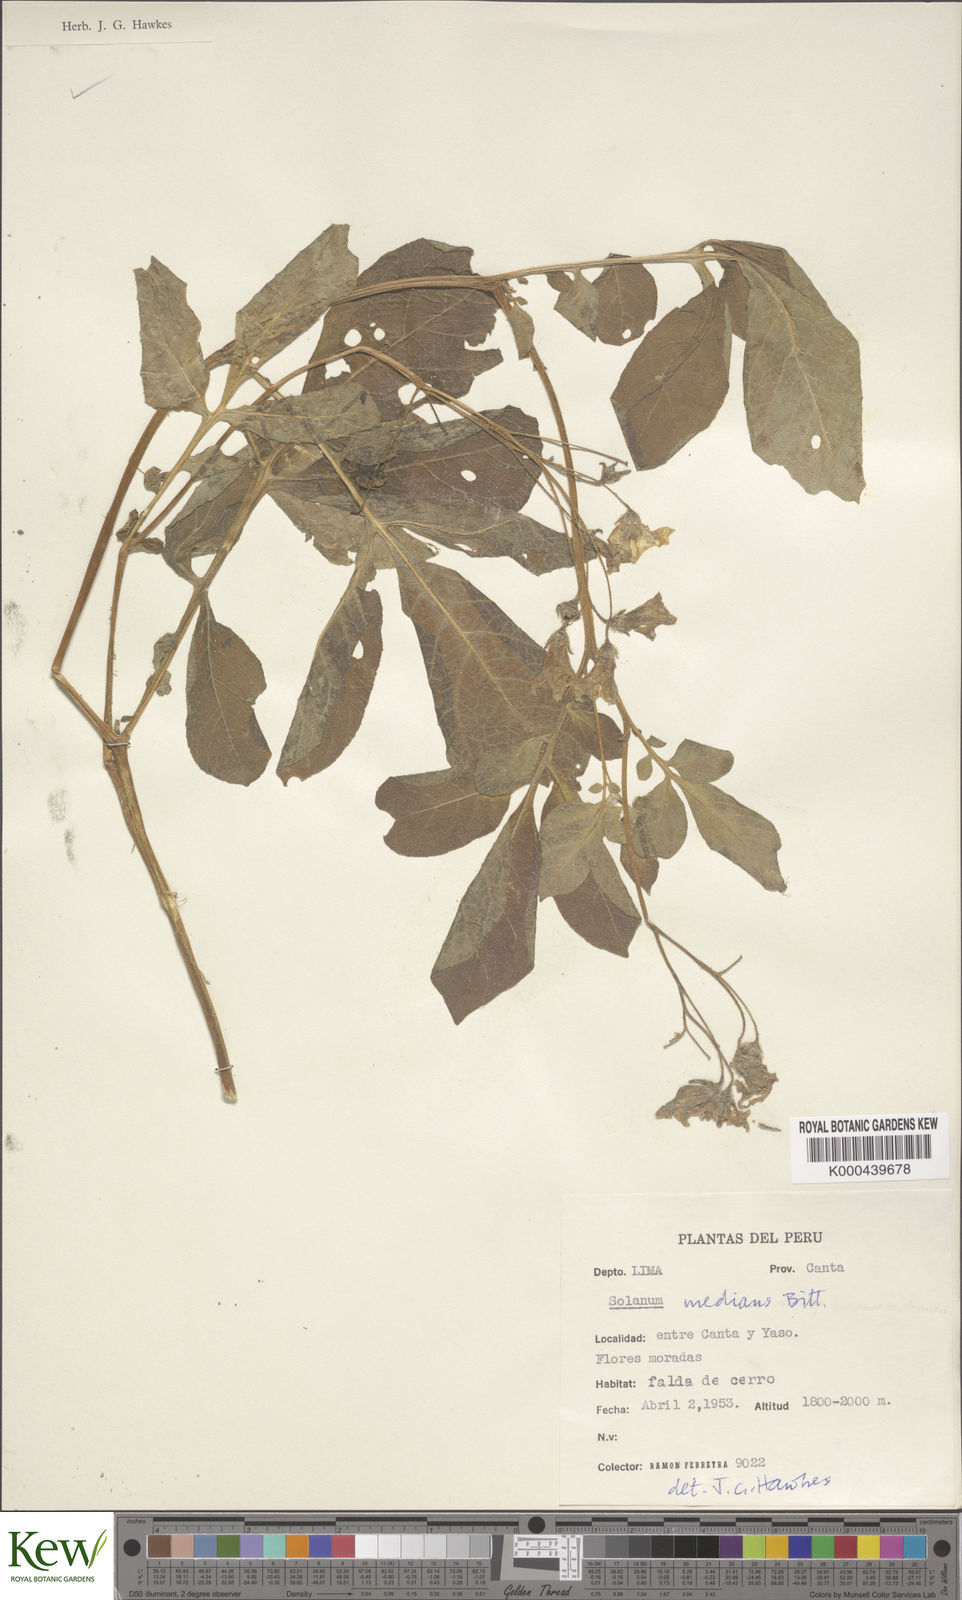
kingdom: Plantae
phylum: Tracheophyta
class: Magnoliopsida
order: Solanales
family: Solanaceae
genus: Solanum
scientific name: Solanum medians
